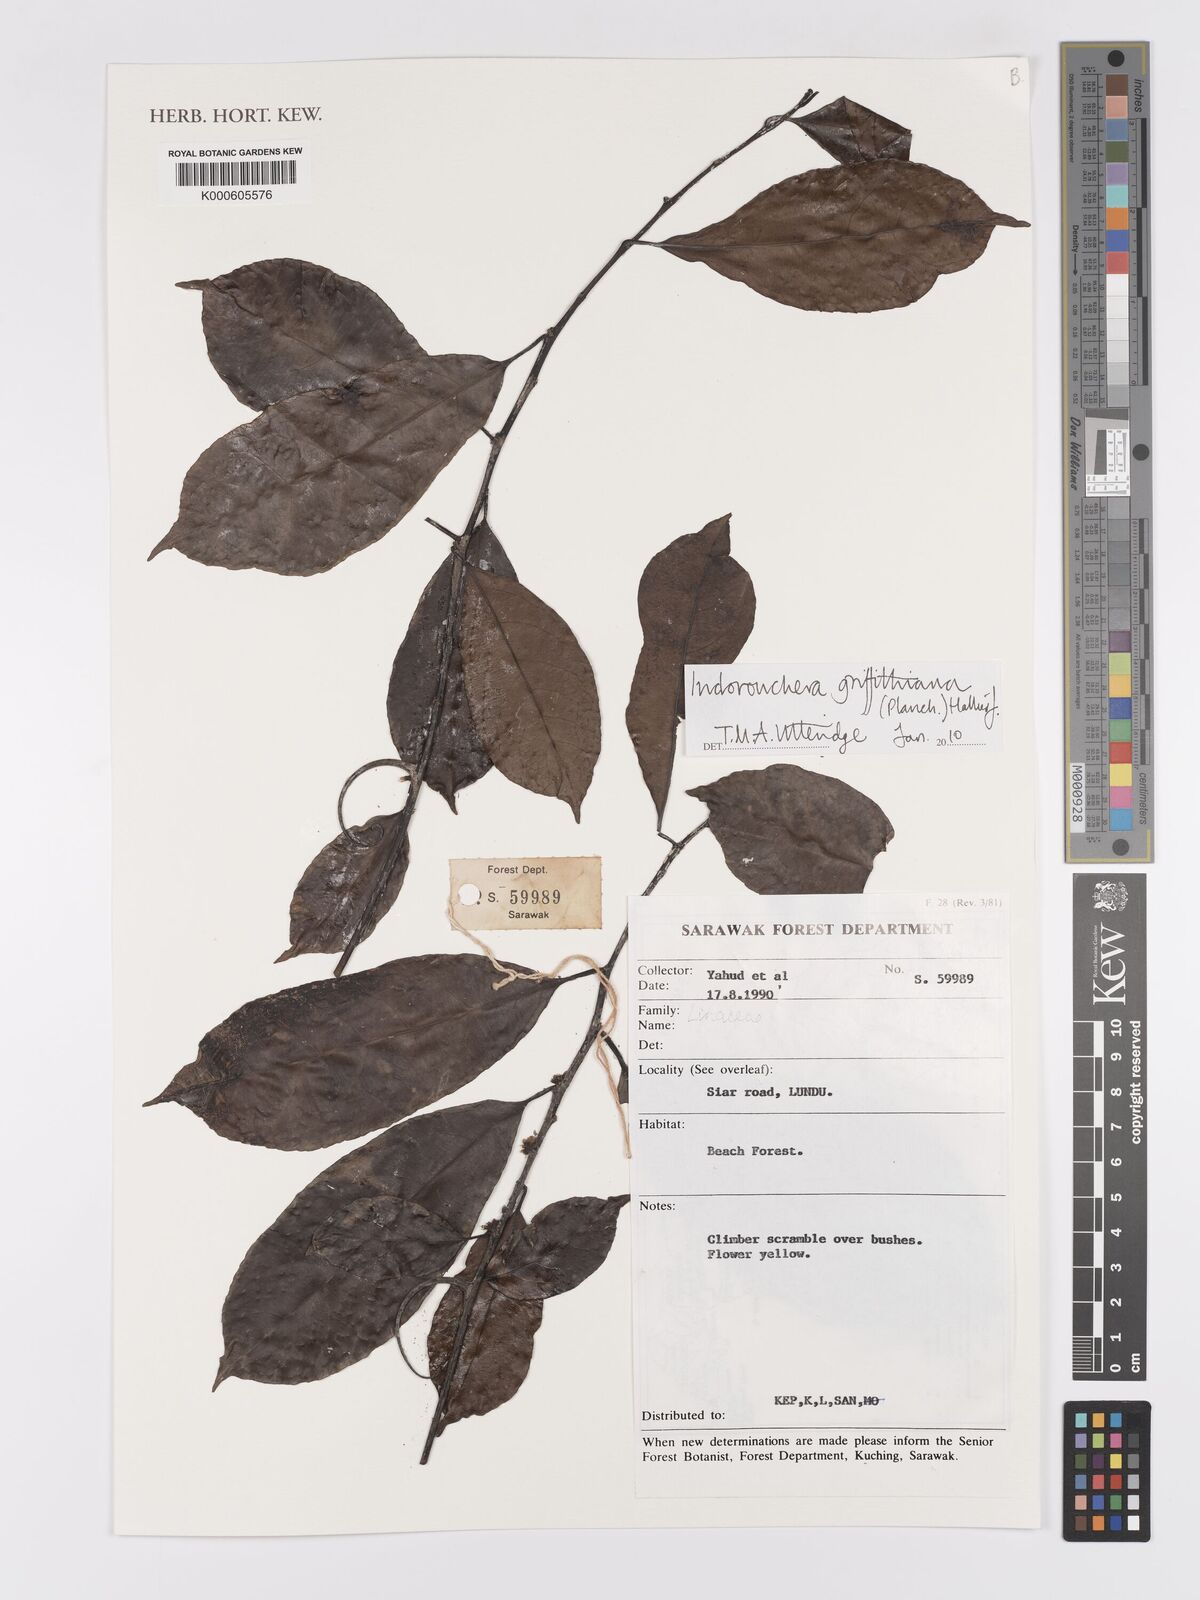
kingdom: Plantae
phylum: Tracheophyta
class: Magnoliopsida
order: Malpighiales
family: Linaceae
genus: Indorouchera
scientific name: Indorouchera griffithiana
